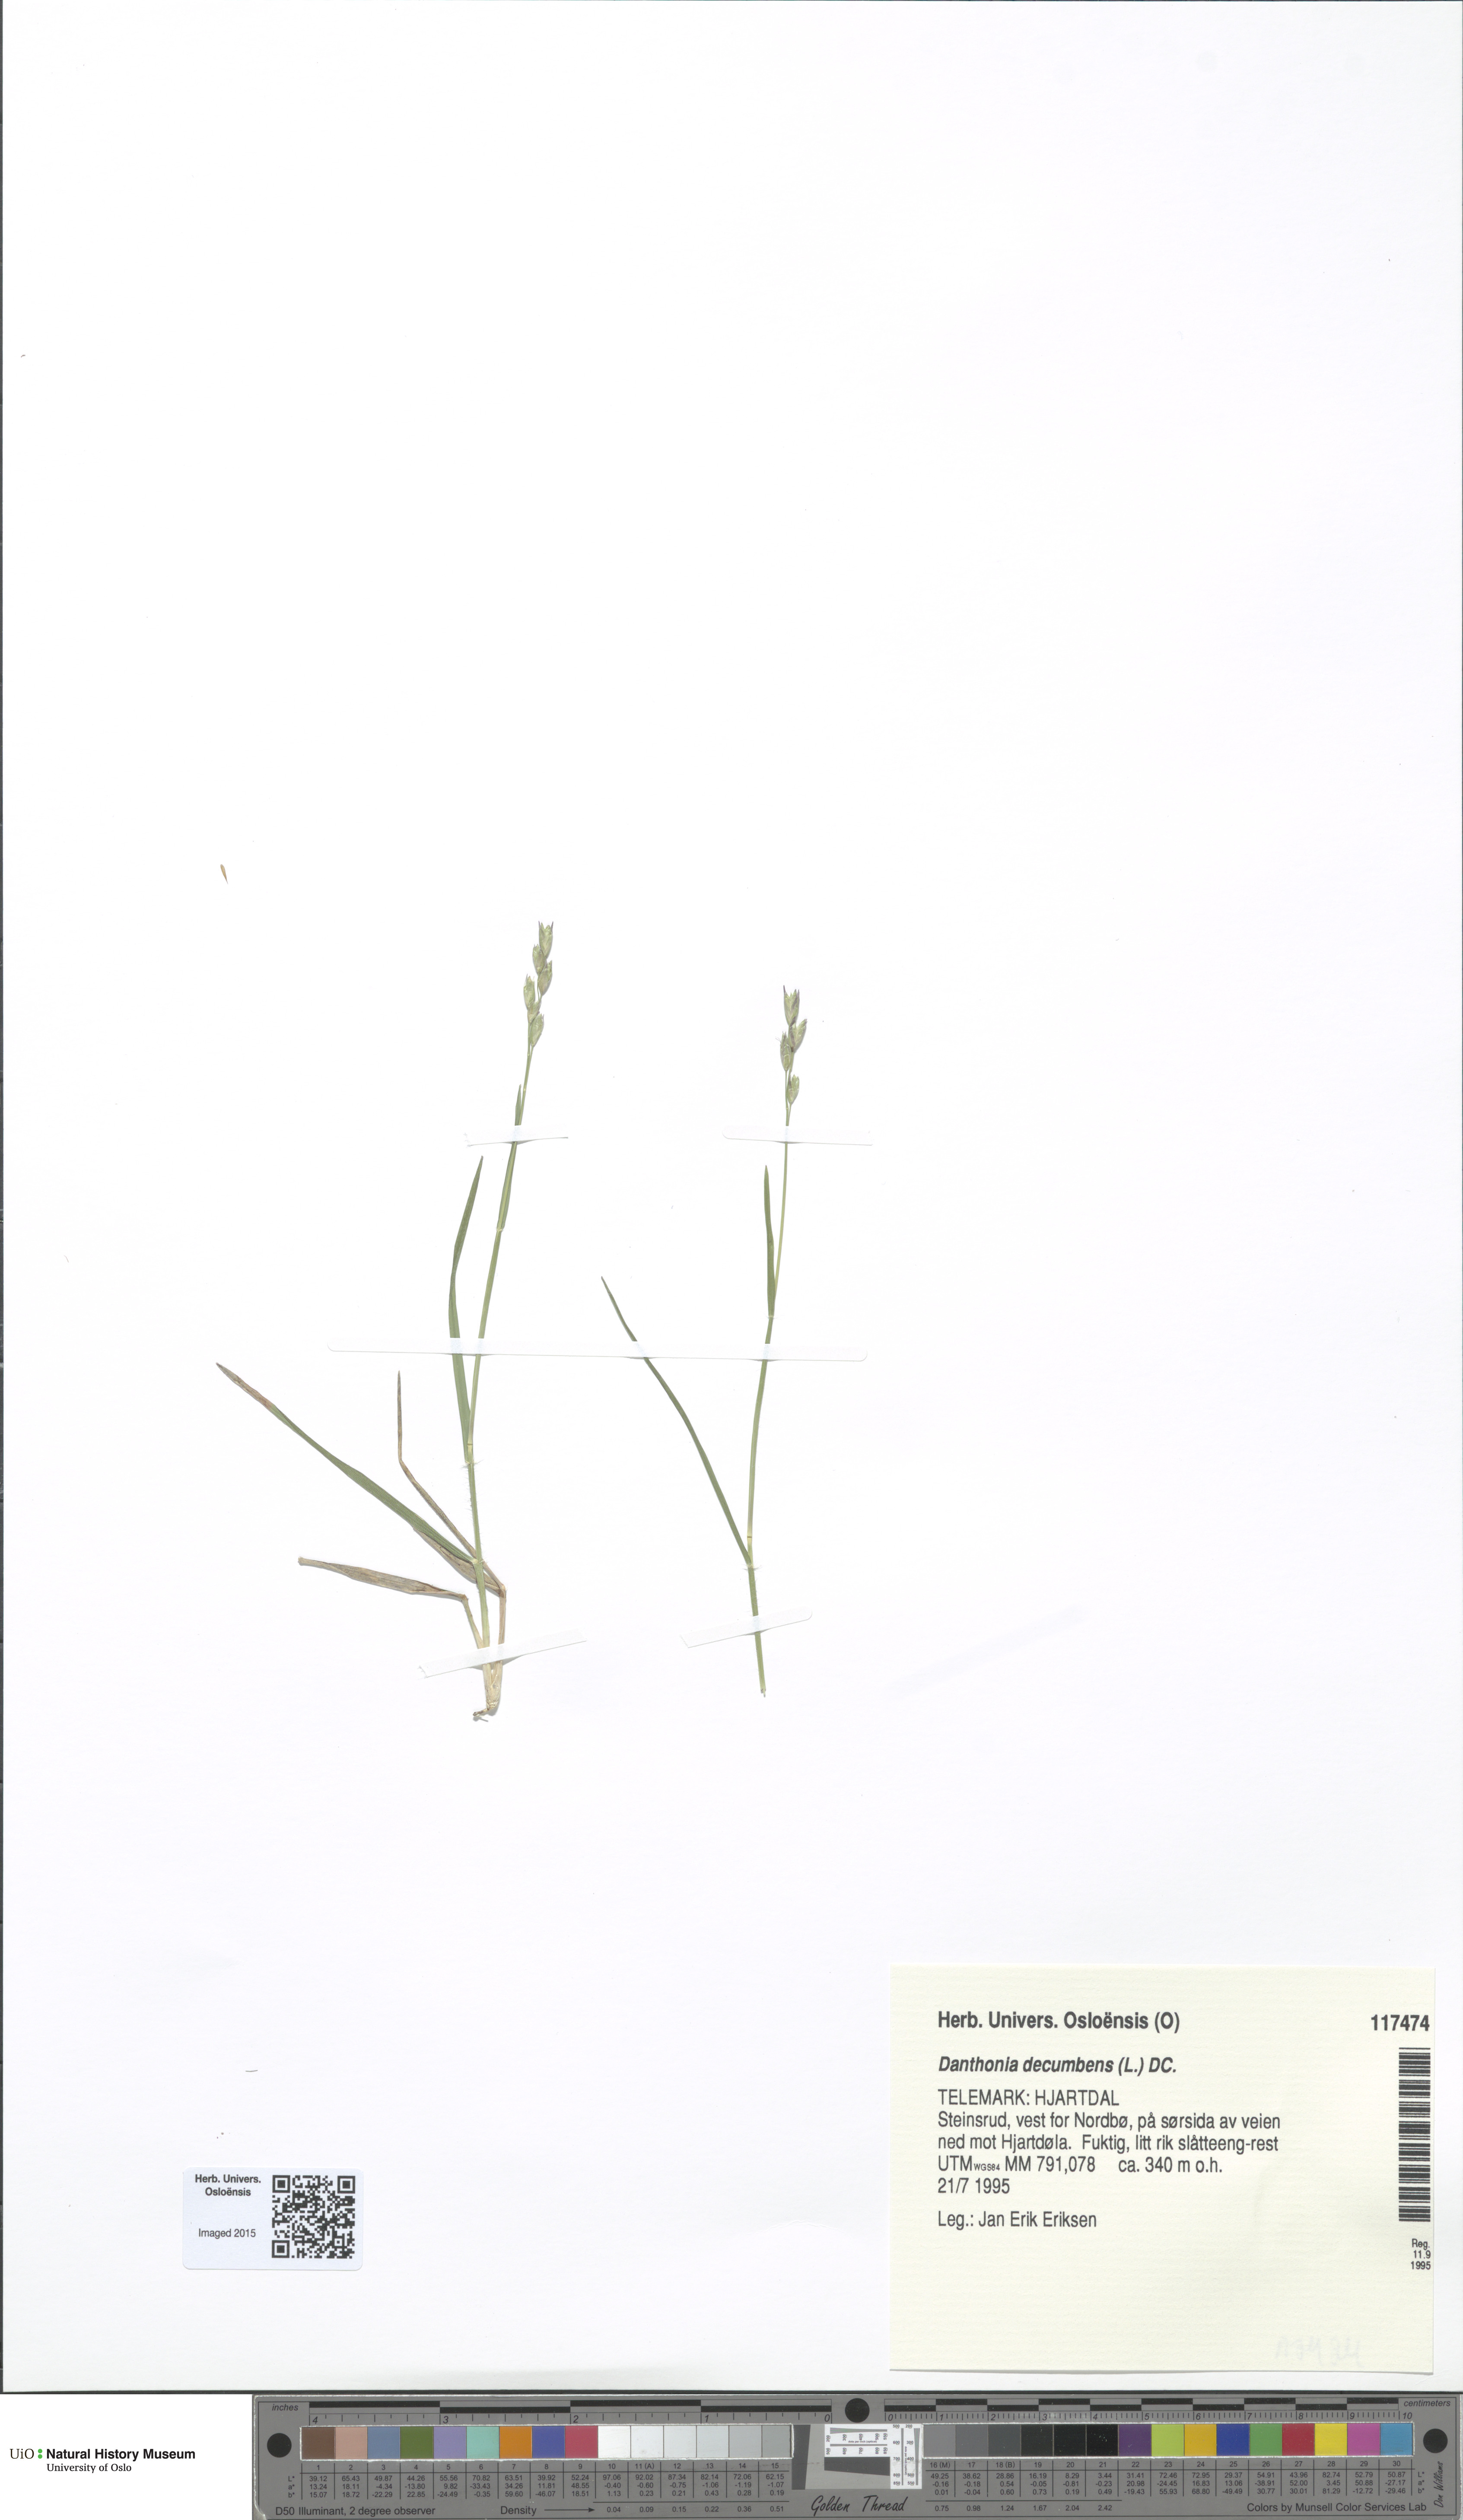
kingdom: Plantae
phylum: Tracheophyta
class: Liliopsida
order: Poales
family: Poaceae
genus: Danthonia
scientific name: Danthonia decumbens
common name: Common heathgrass
